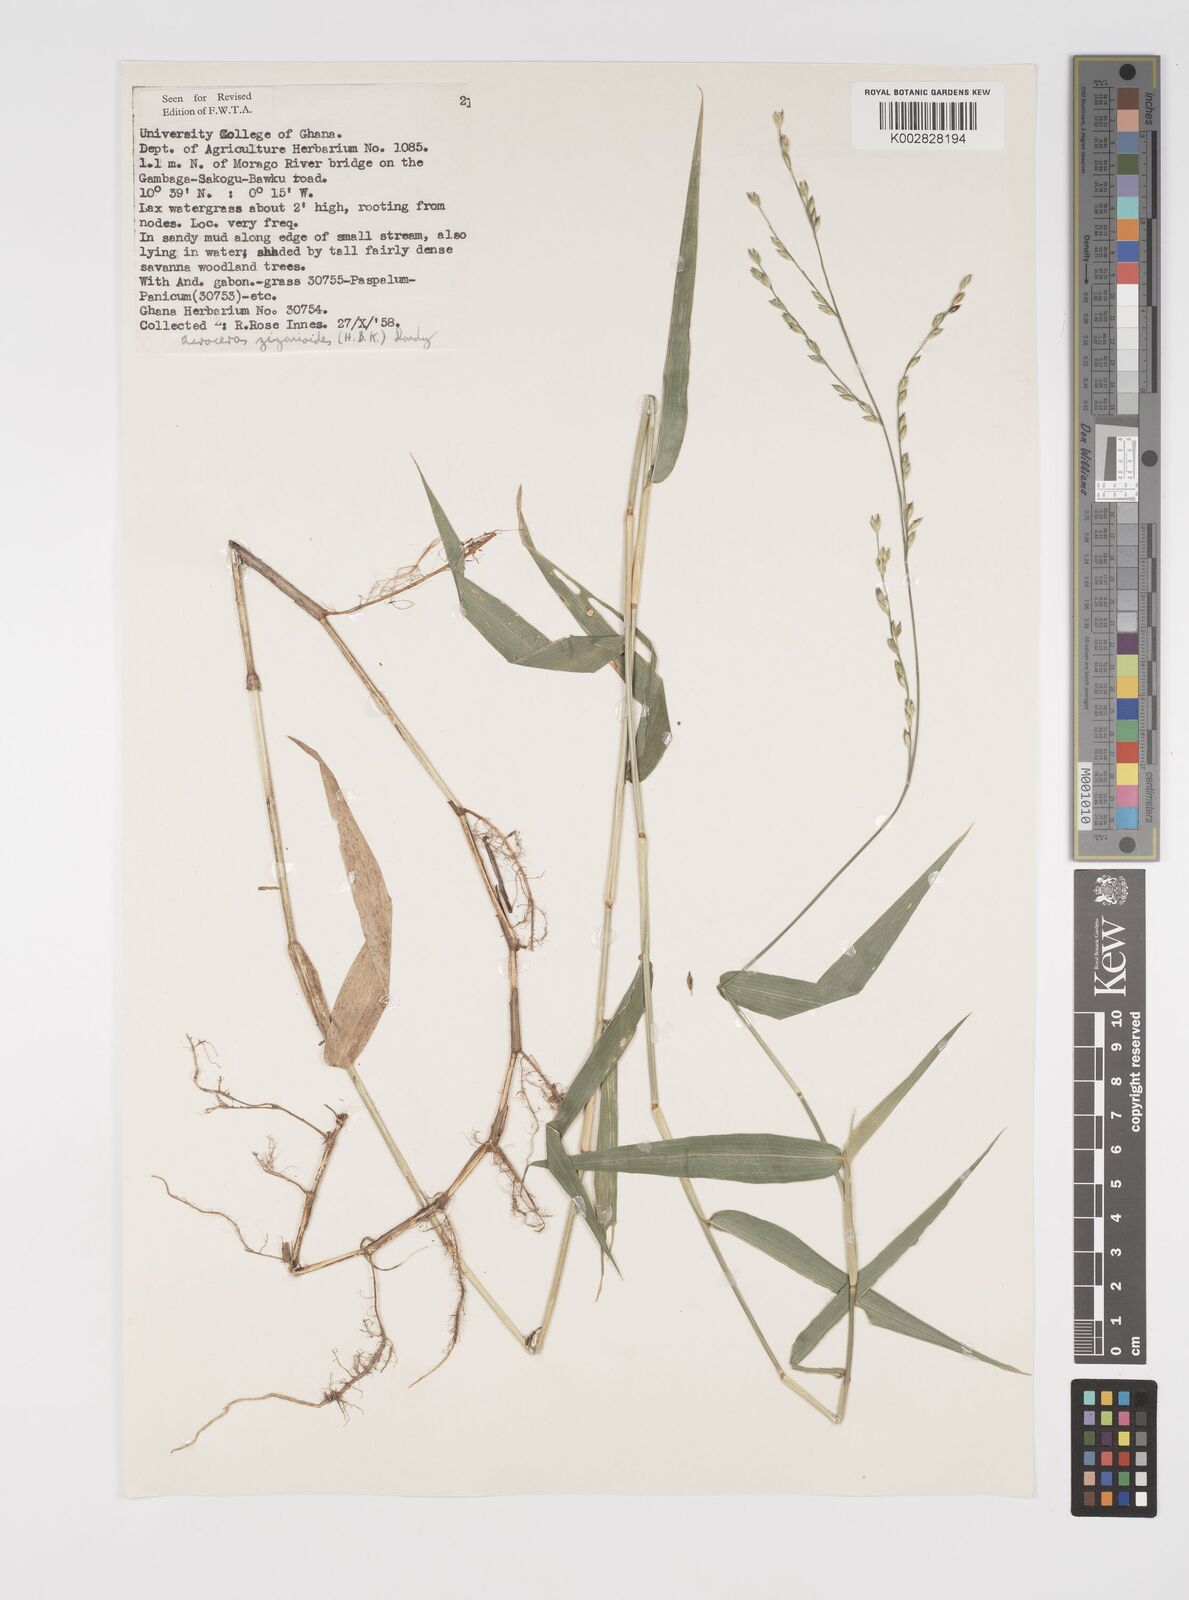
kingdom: Plantae
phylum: Tracheophyta
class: Liliopsida
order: Poales
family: Poaceae
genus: Acroceras
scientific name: Acroceras zizanioides
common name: Oat grass
